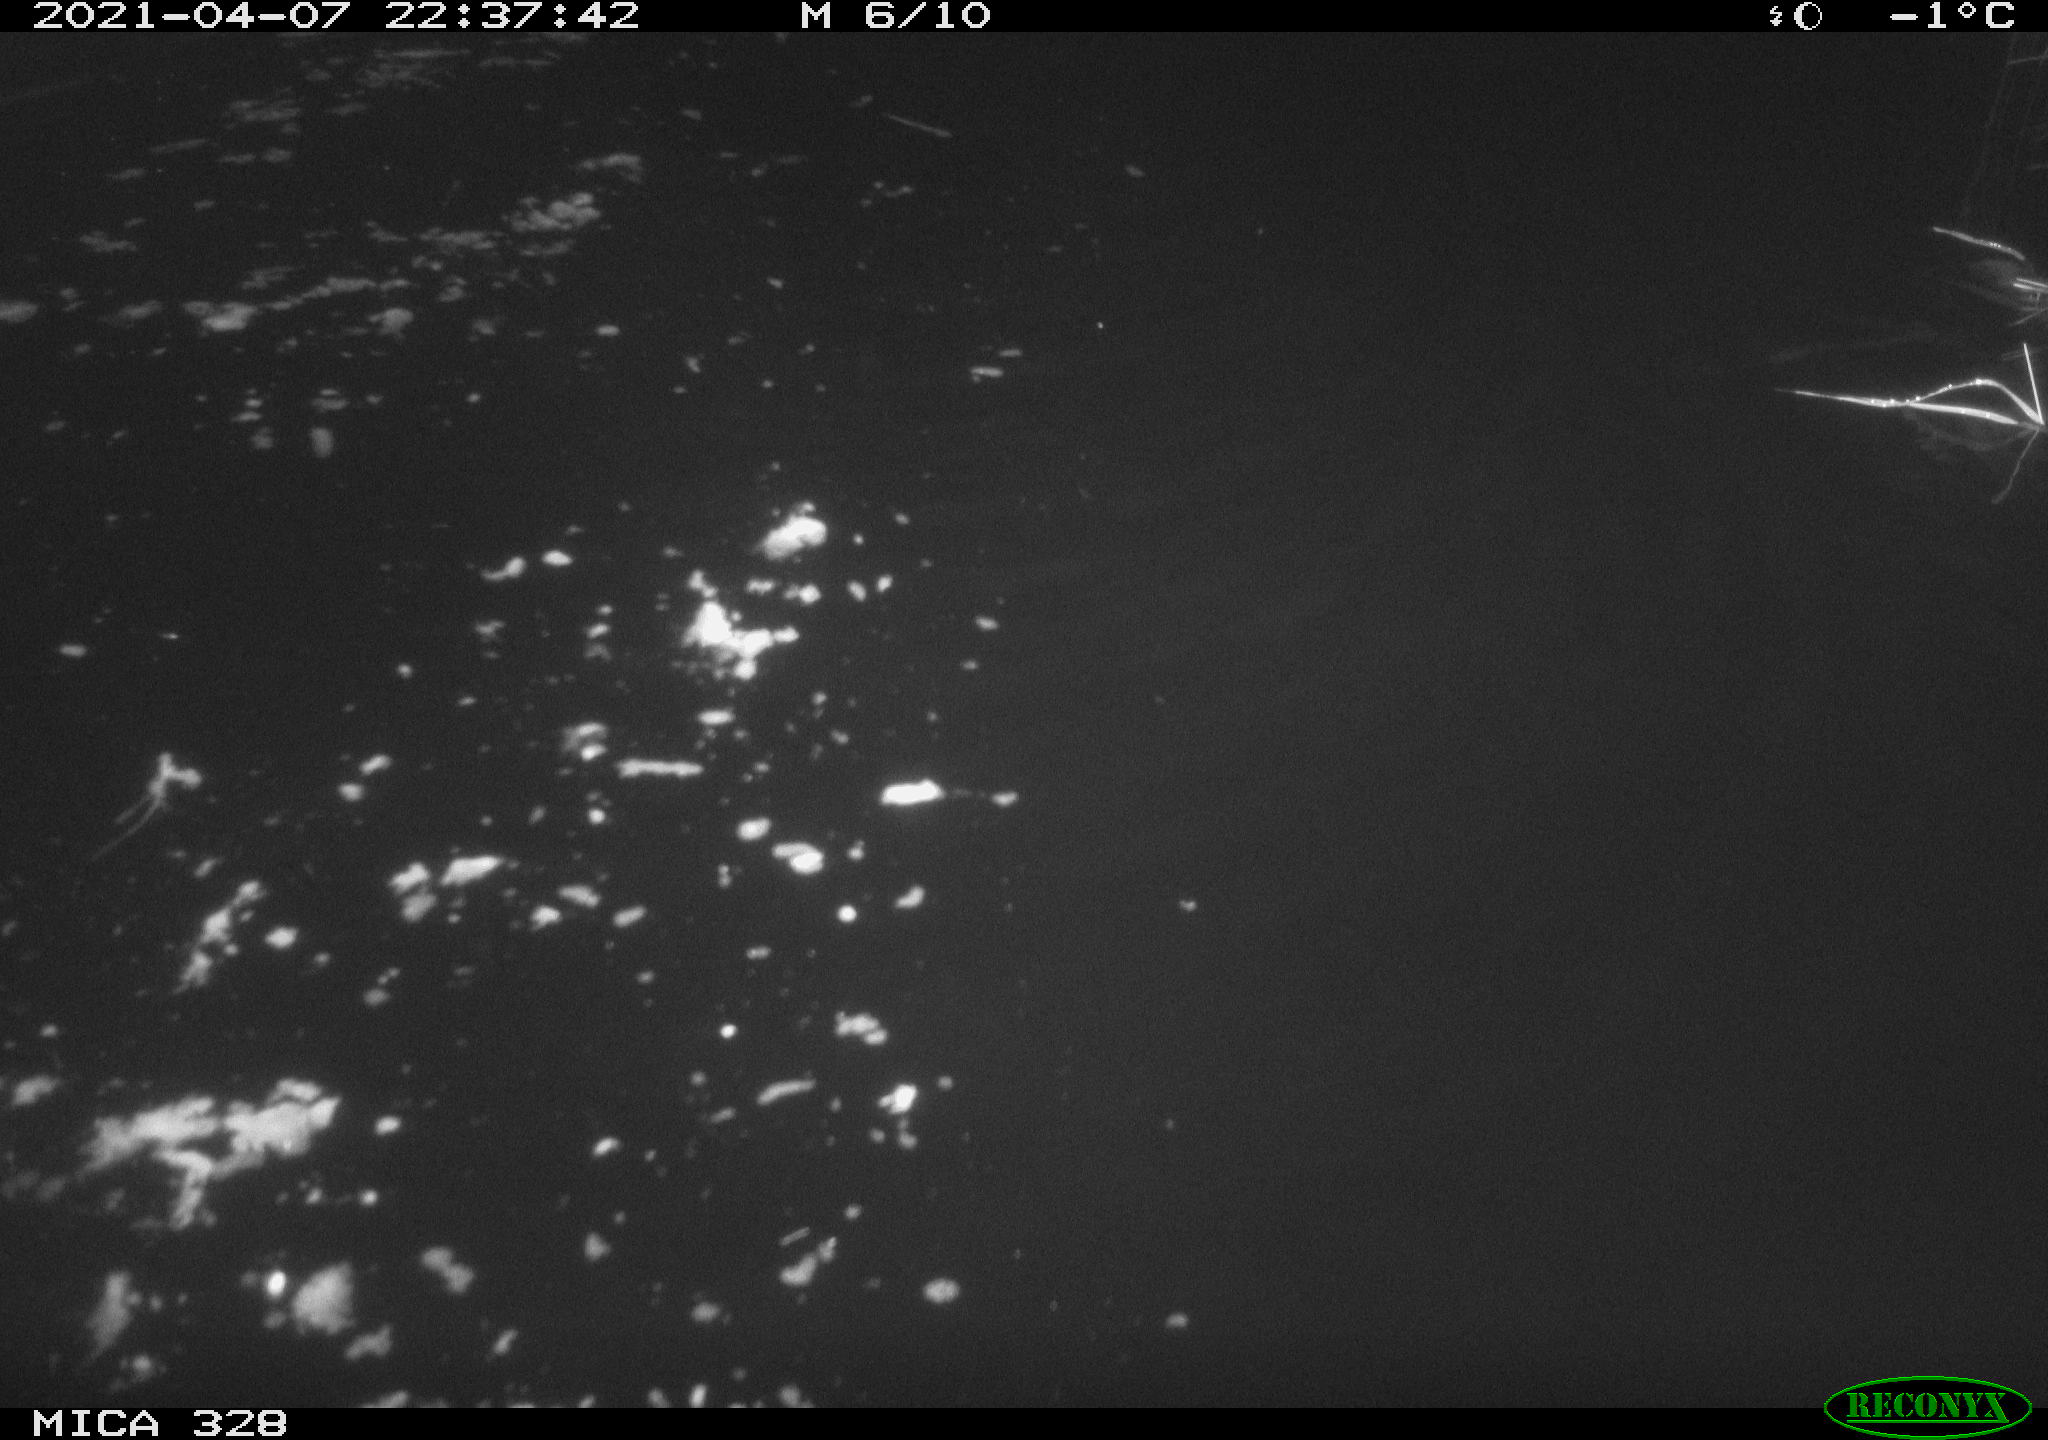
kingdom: Animalia
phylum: Chordata
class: Mammalia
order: Rodentia
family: Cricetidae
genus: Ondatra
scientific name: Ondatra zibethicus
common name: Muskrat
